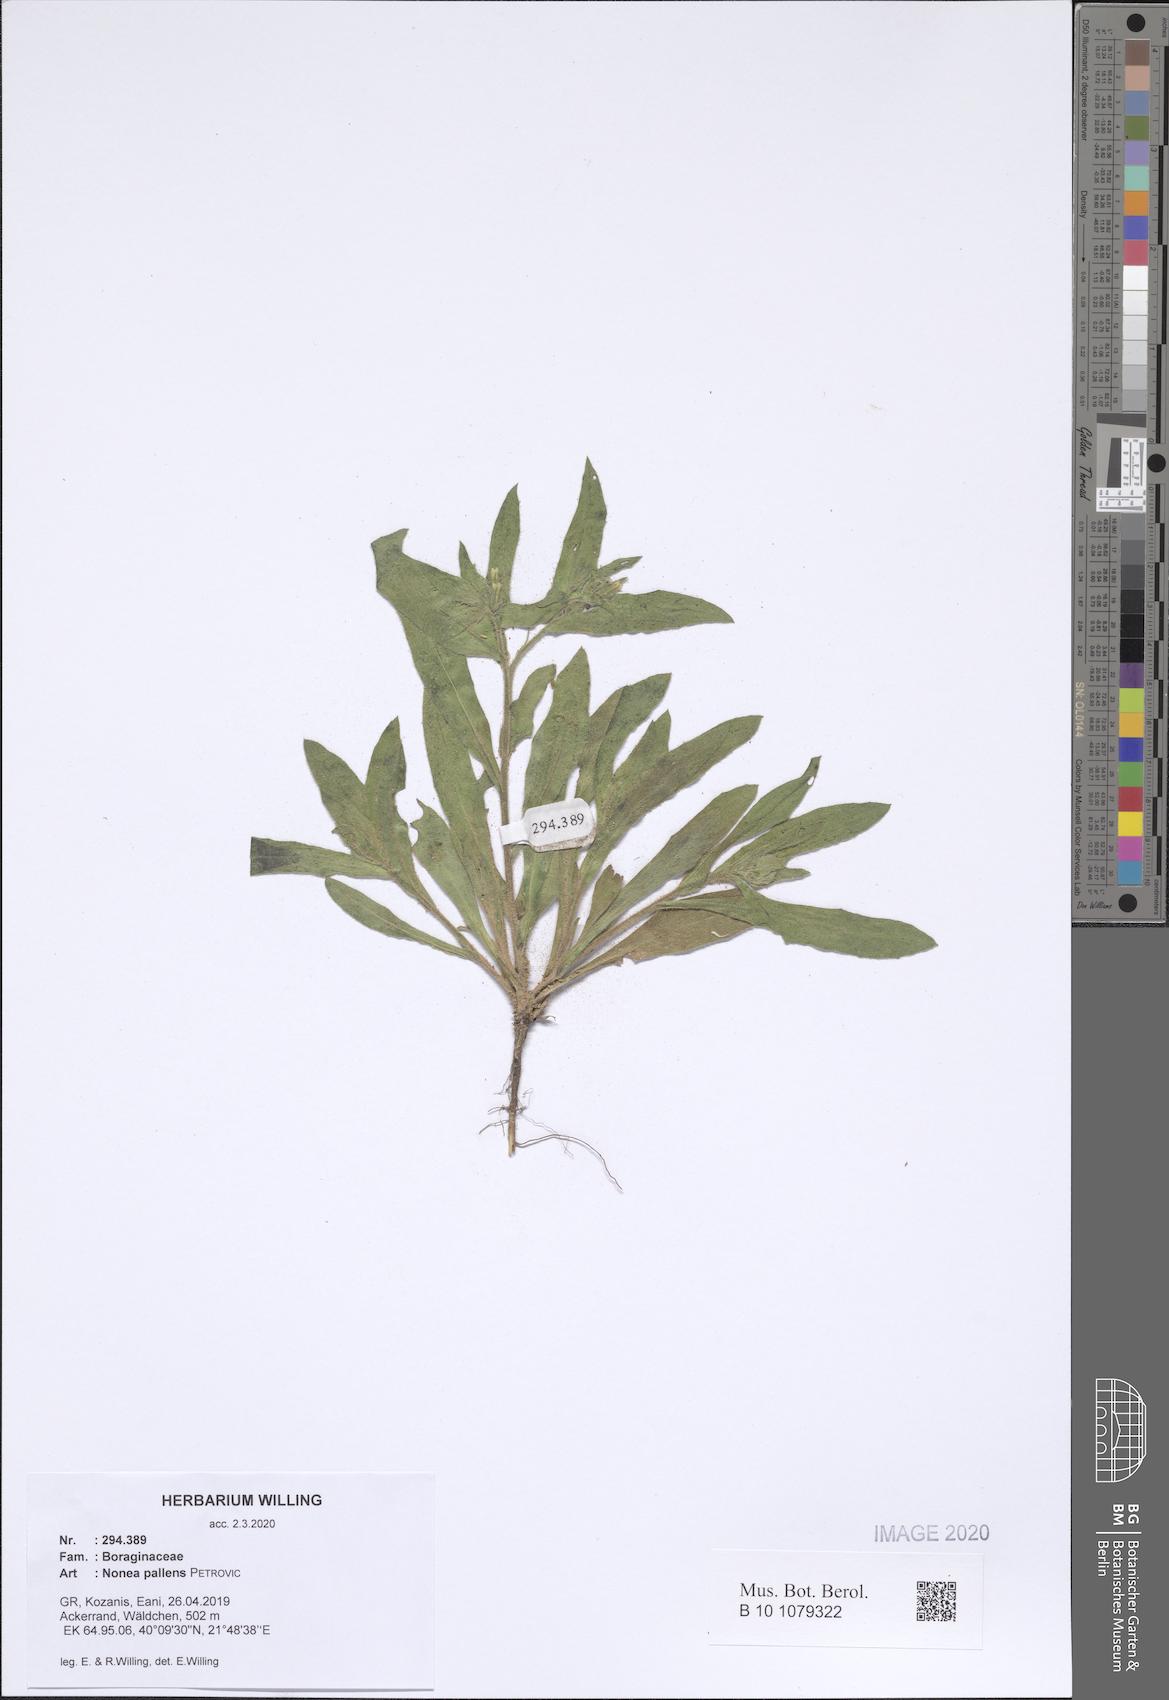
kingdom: Plantae
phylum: Tracheophyta
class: Magnoliopsida
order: Boraginales
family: Boraginaceae
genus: Nonea
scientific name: Nonea pallens
